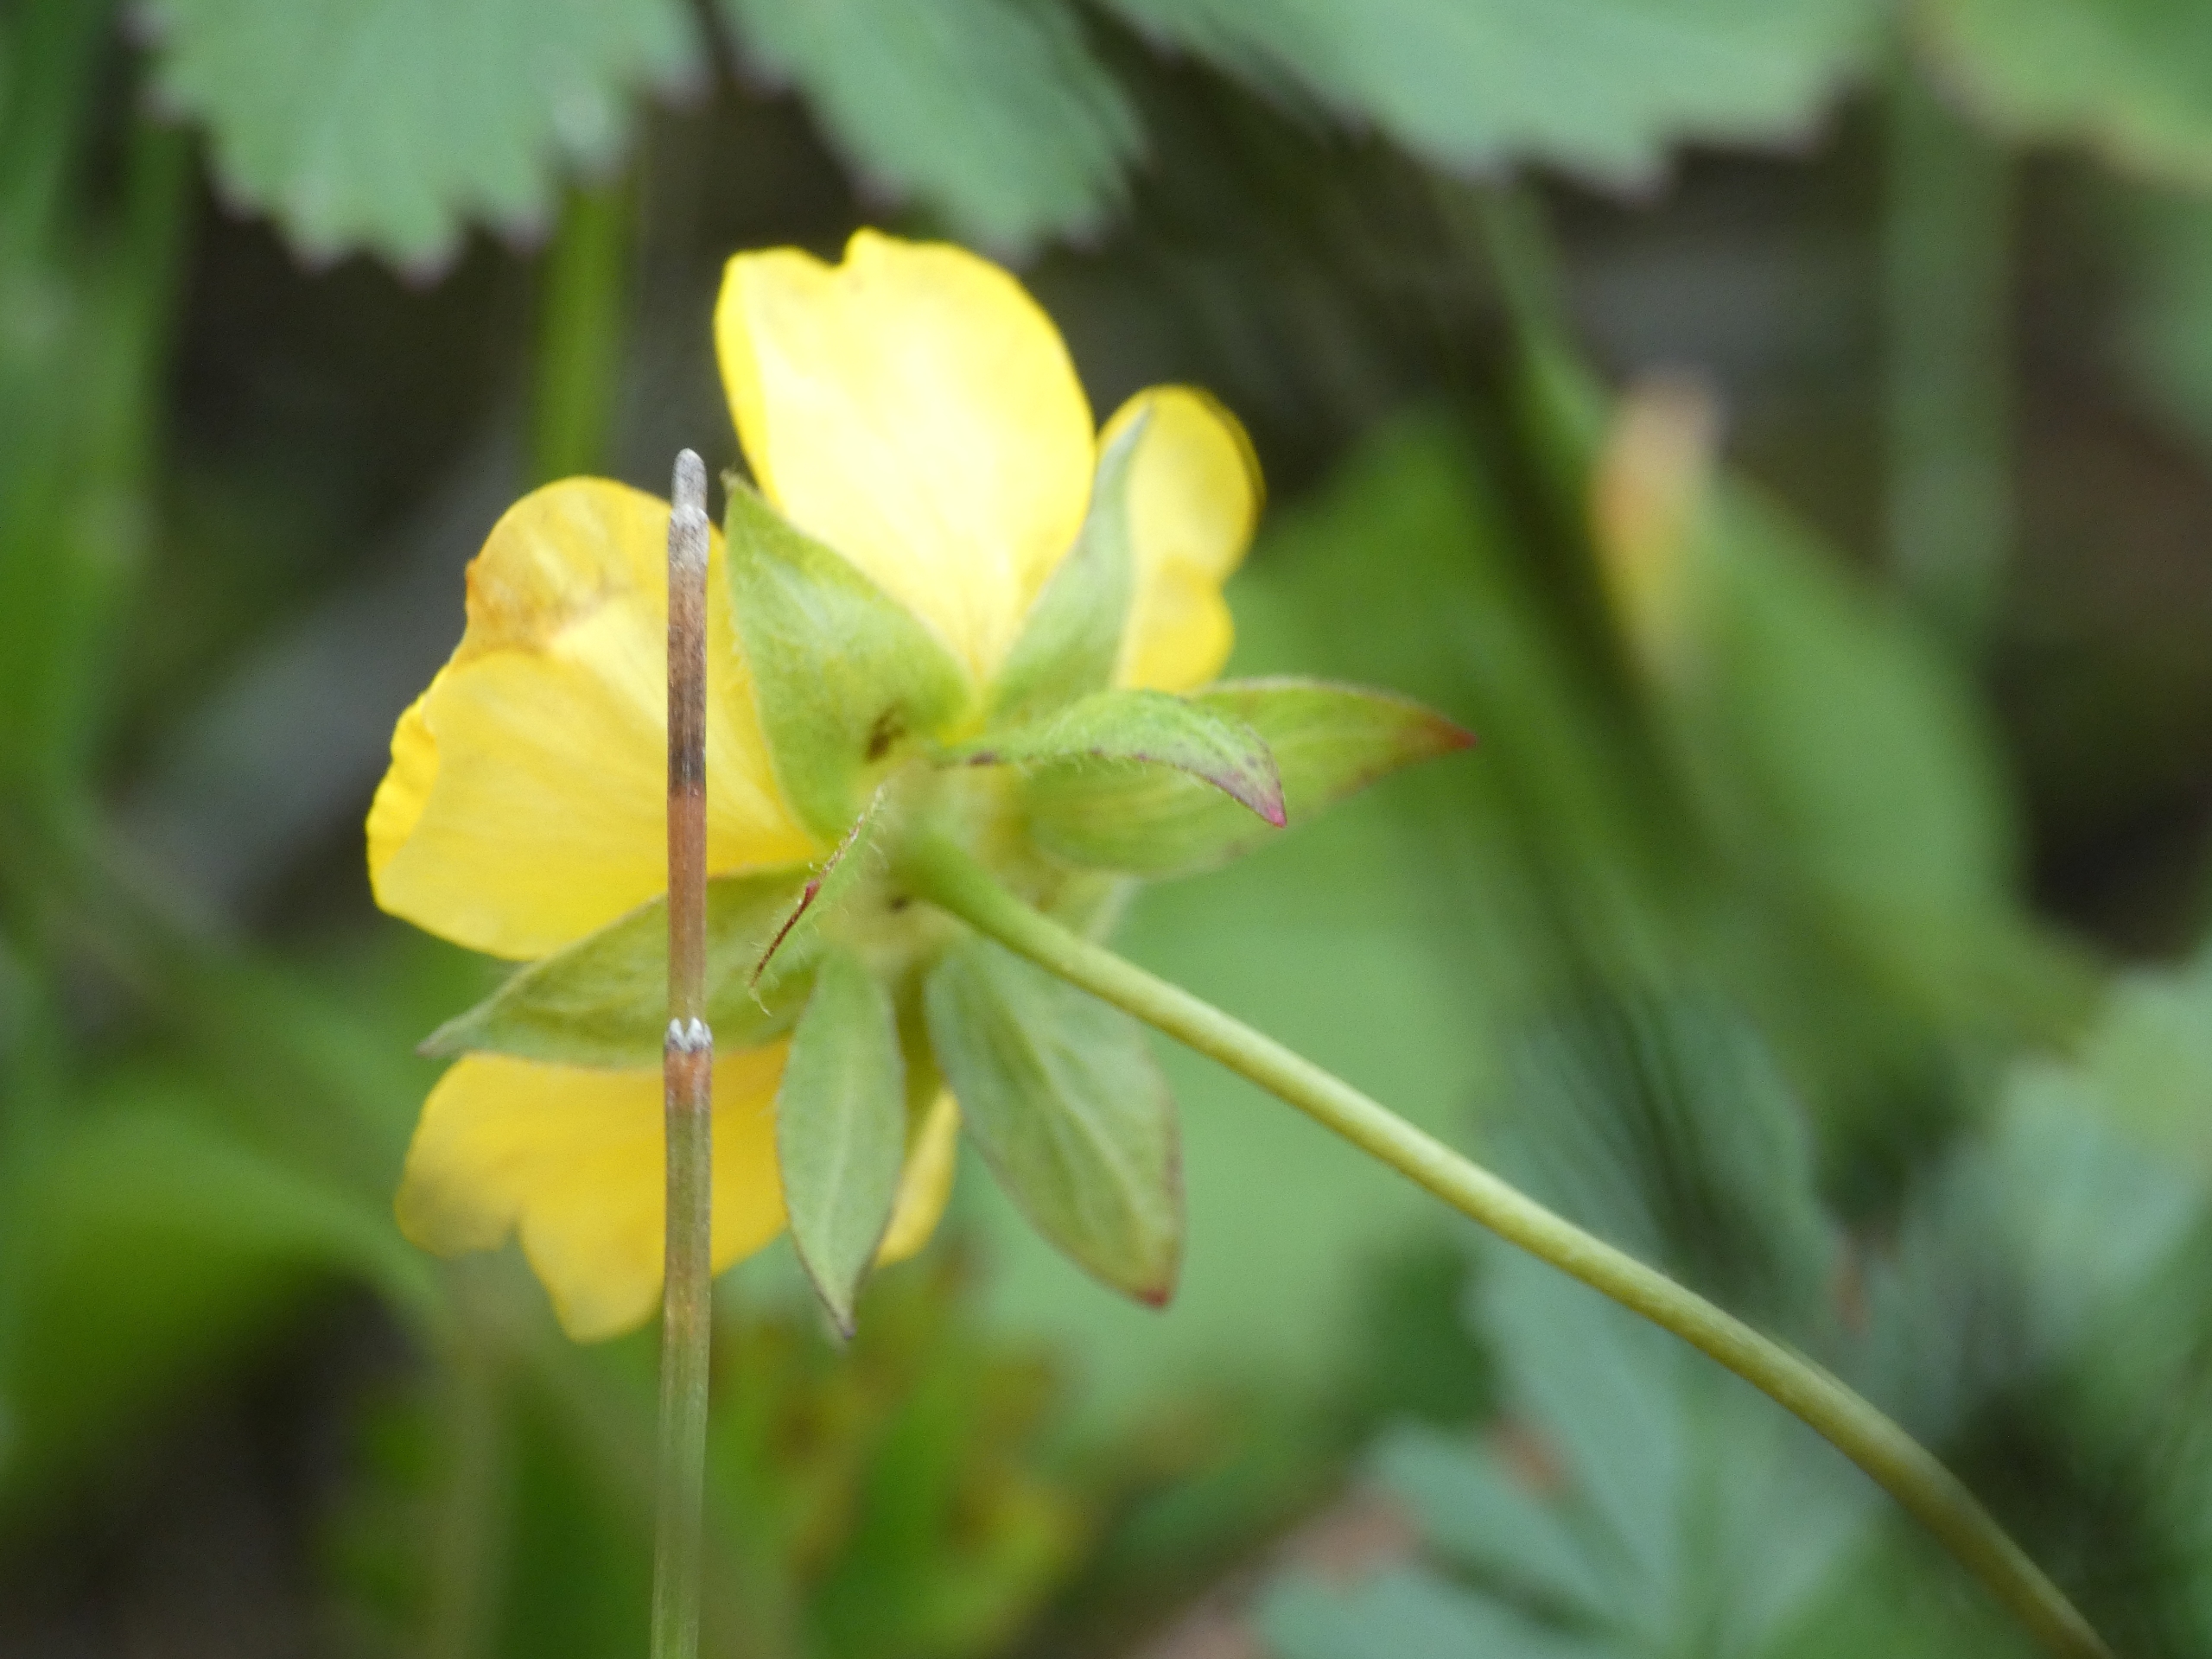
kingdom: Plantae
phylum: Tracheophyta
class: Magnoliopsida
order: Rosales
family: Rosaceae
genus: Potentilla
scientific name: Potentilla reptans
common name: Krybende potentil
